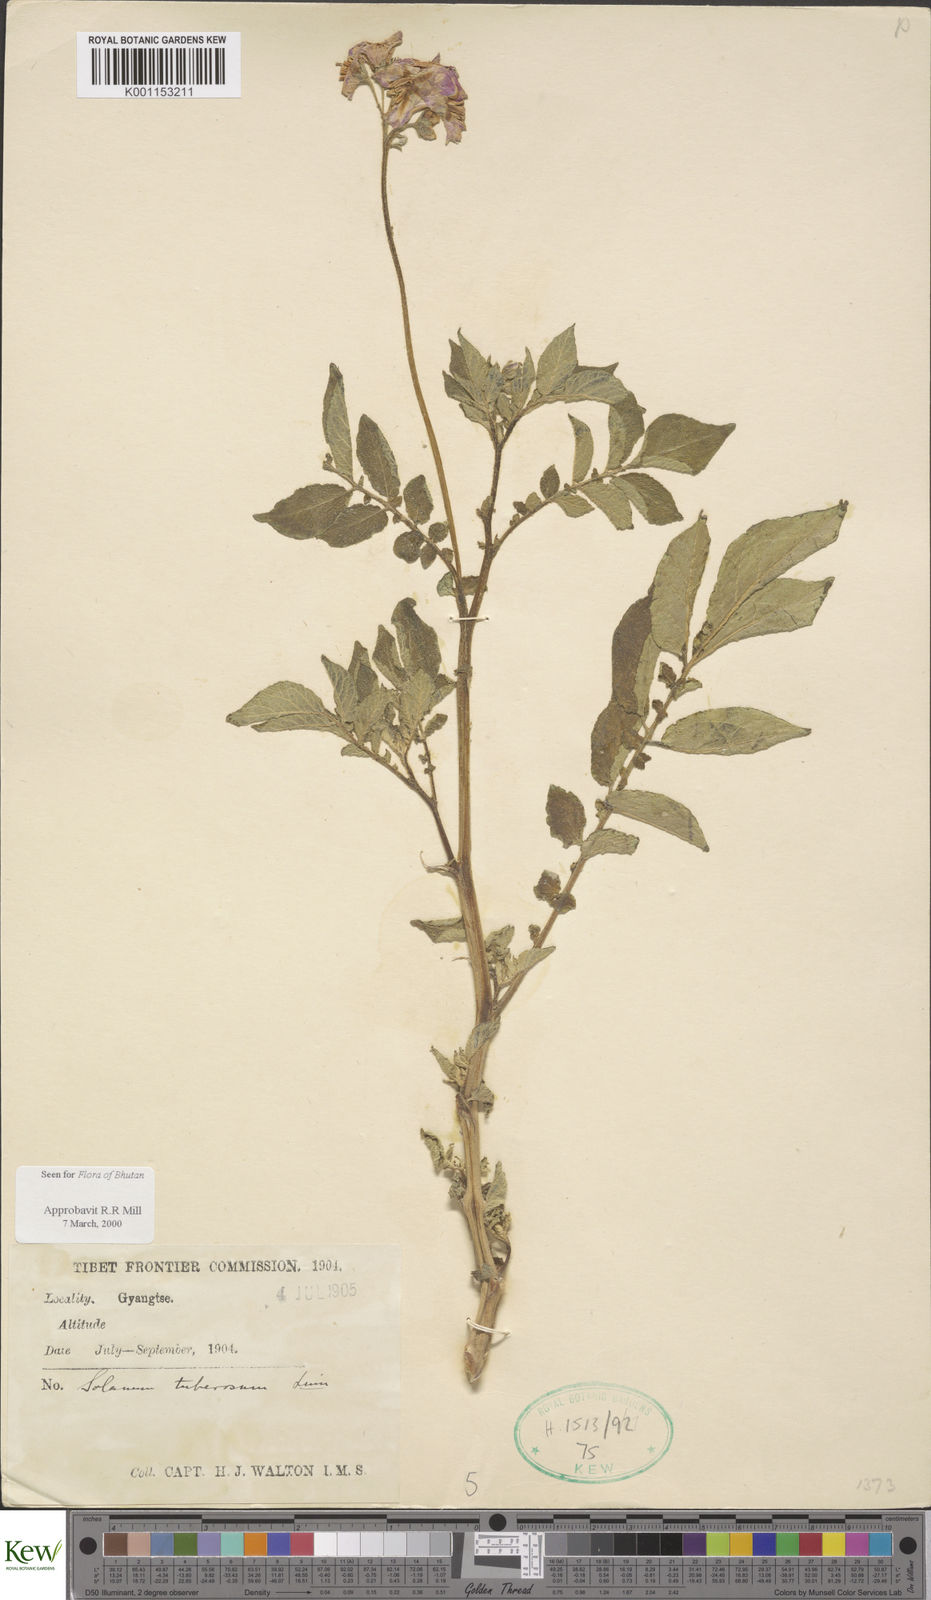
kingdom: Plantae
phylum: Tracheophyta
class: Magnoliopsida
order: Solanales
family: Solanaceae
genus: Solanum
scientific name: Solanum tuberosum
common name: Potato
